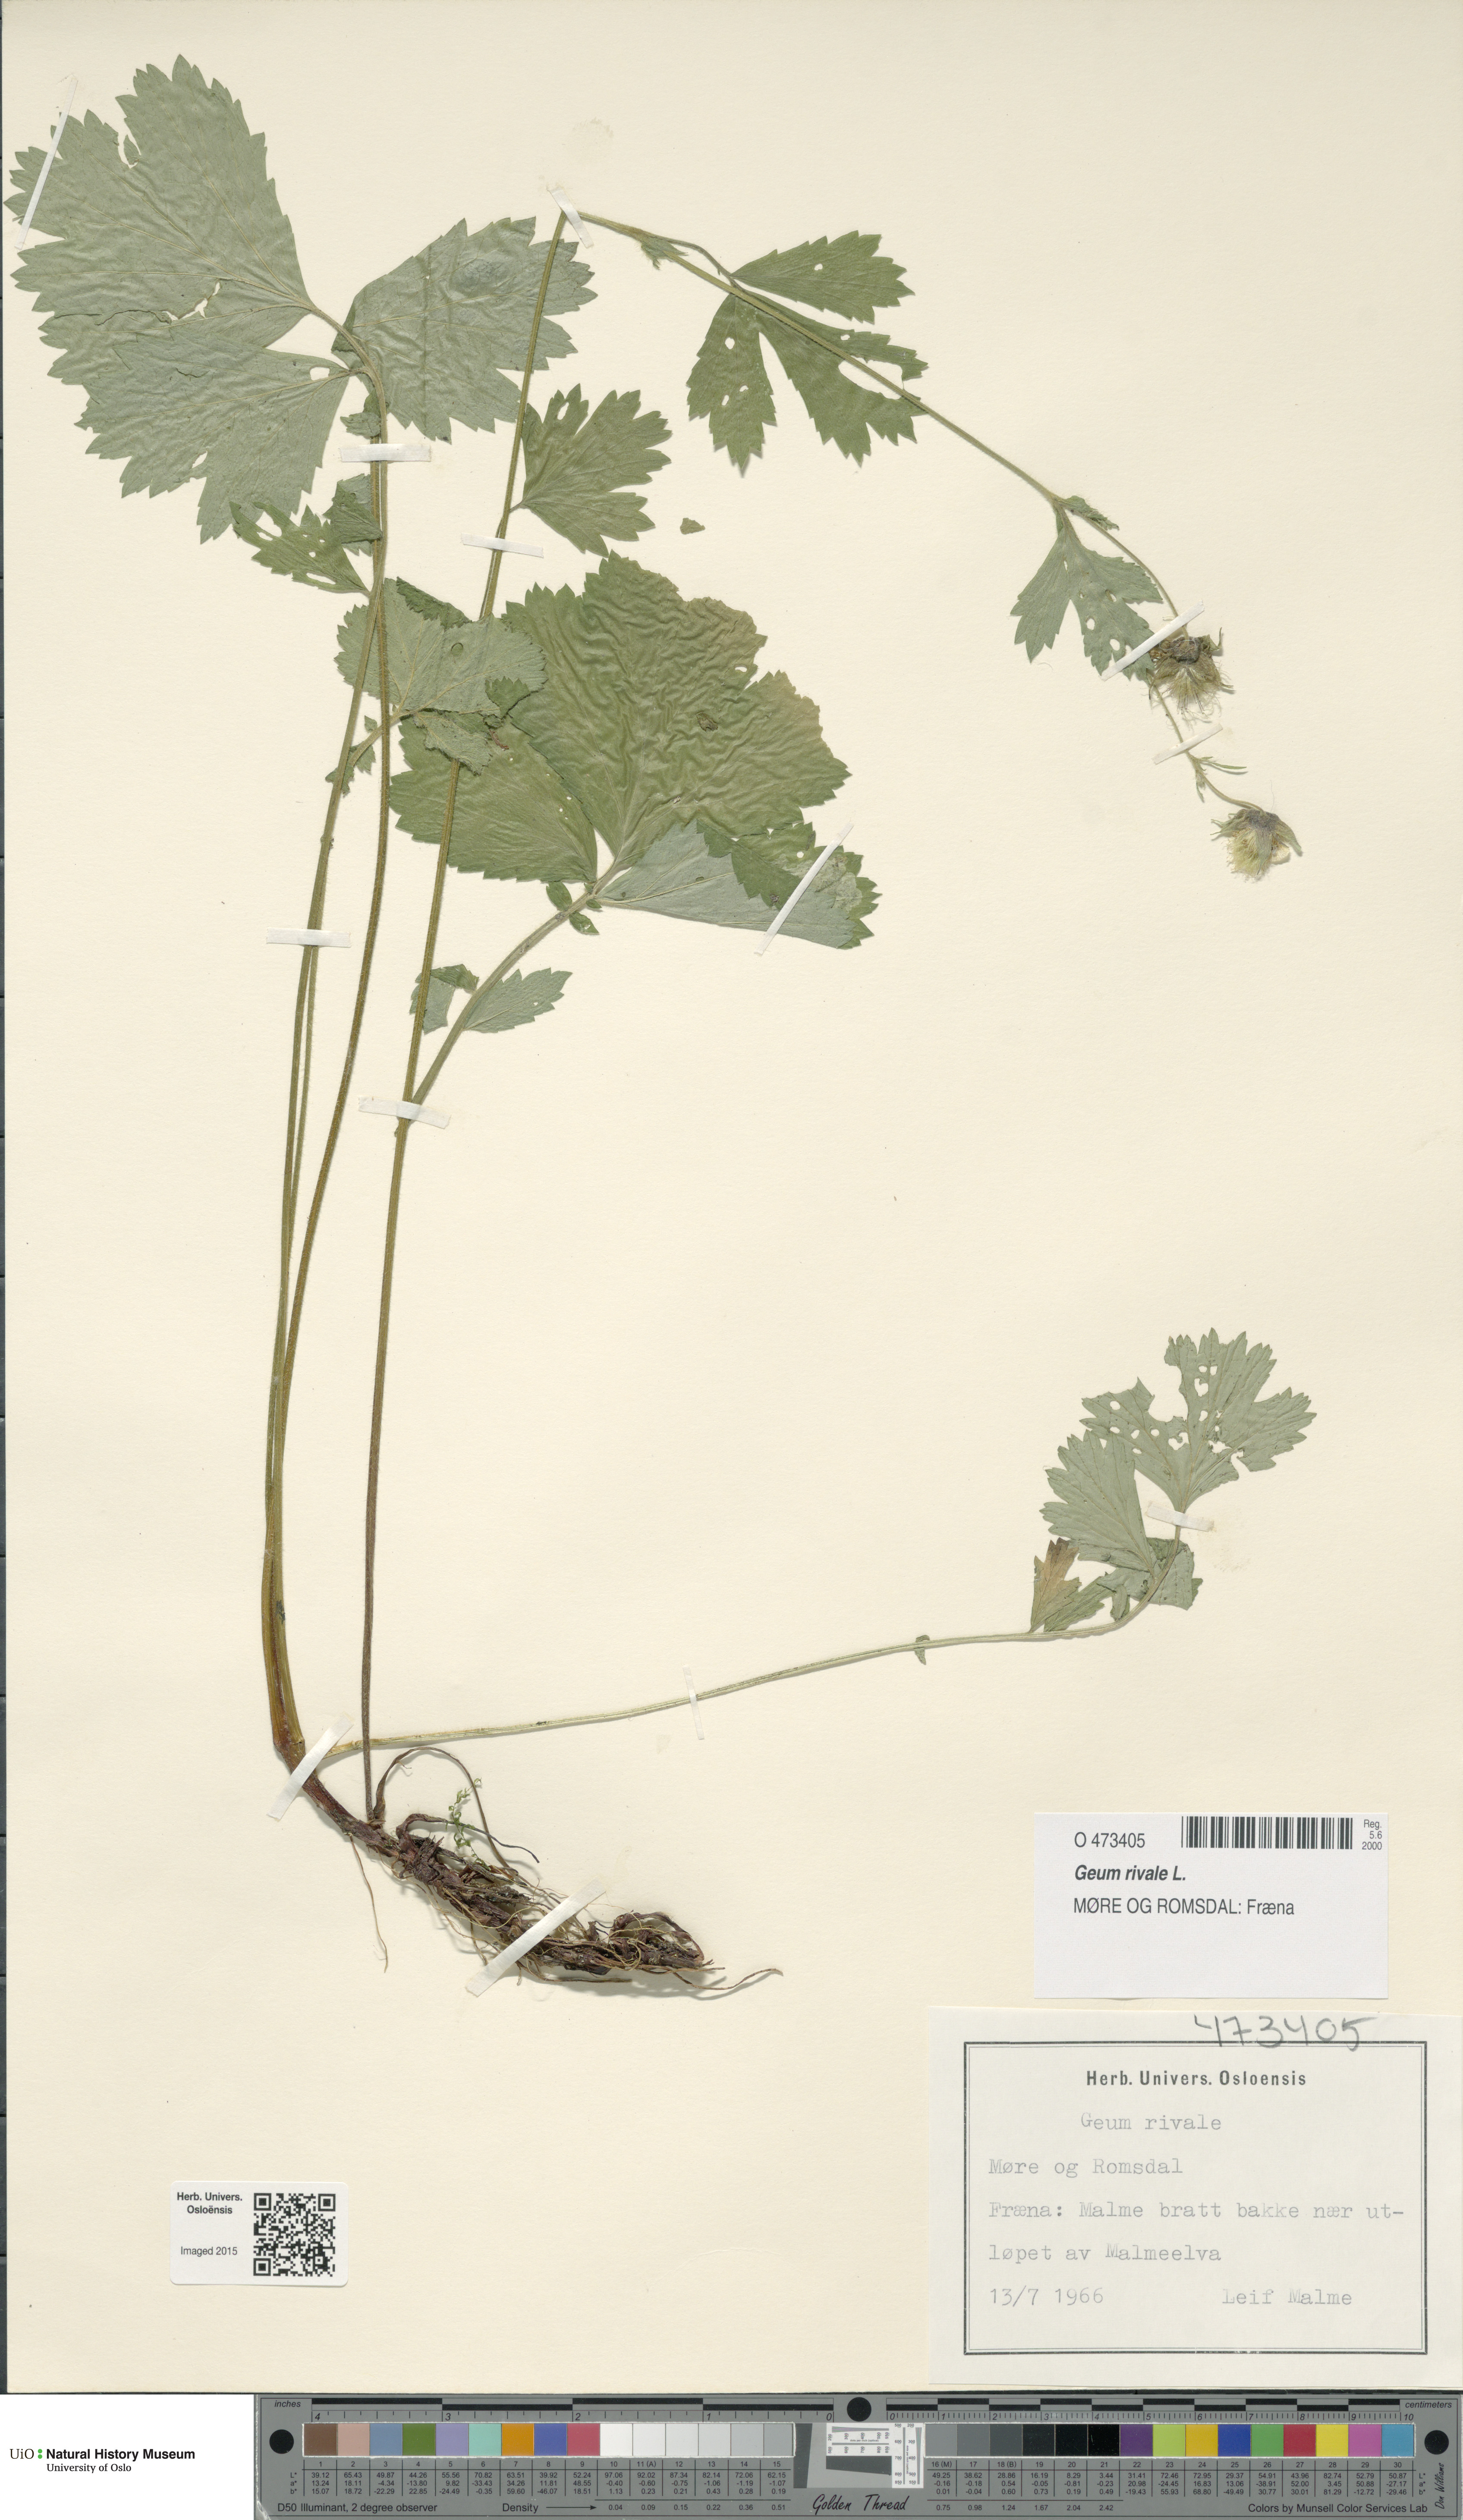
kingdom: Plantae
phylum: Tracheophyta
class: Magnoliopsida
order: Rosales
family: Rosaceae
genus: Geum
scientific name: Geum rivale
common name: Water avens
